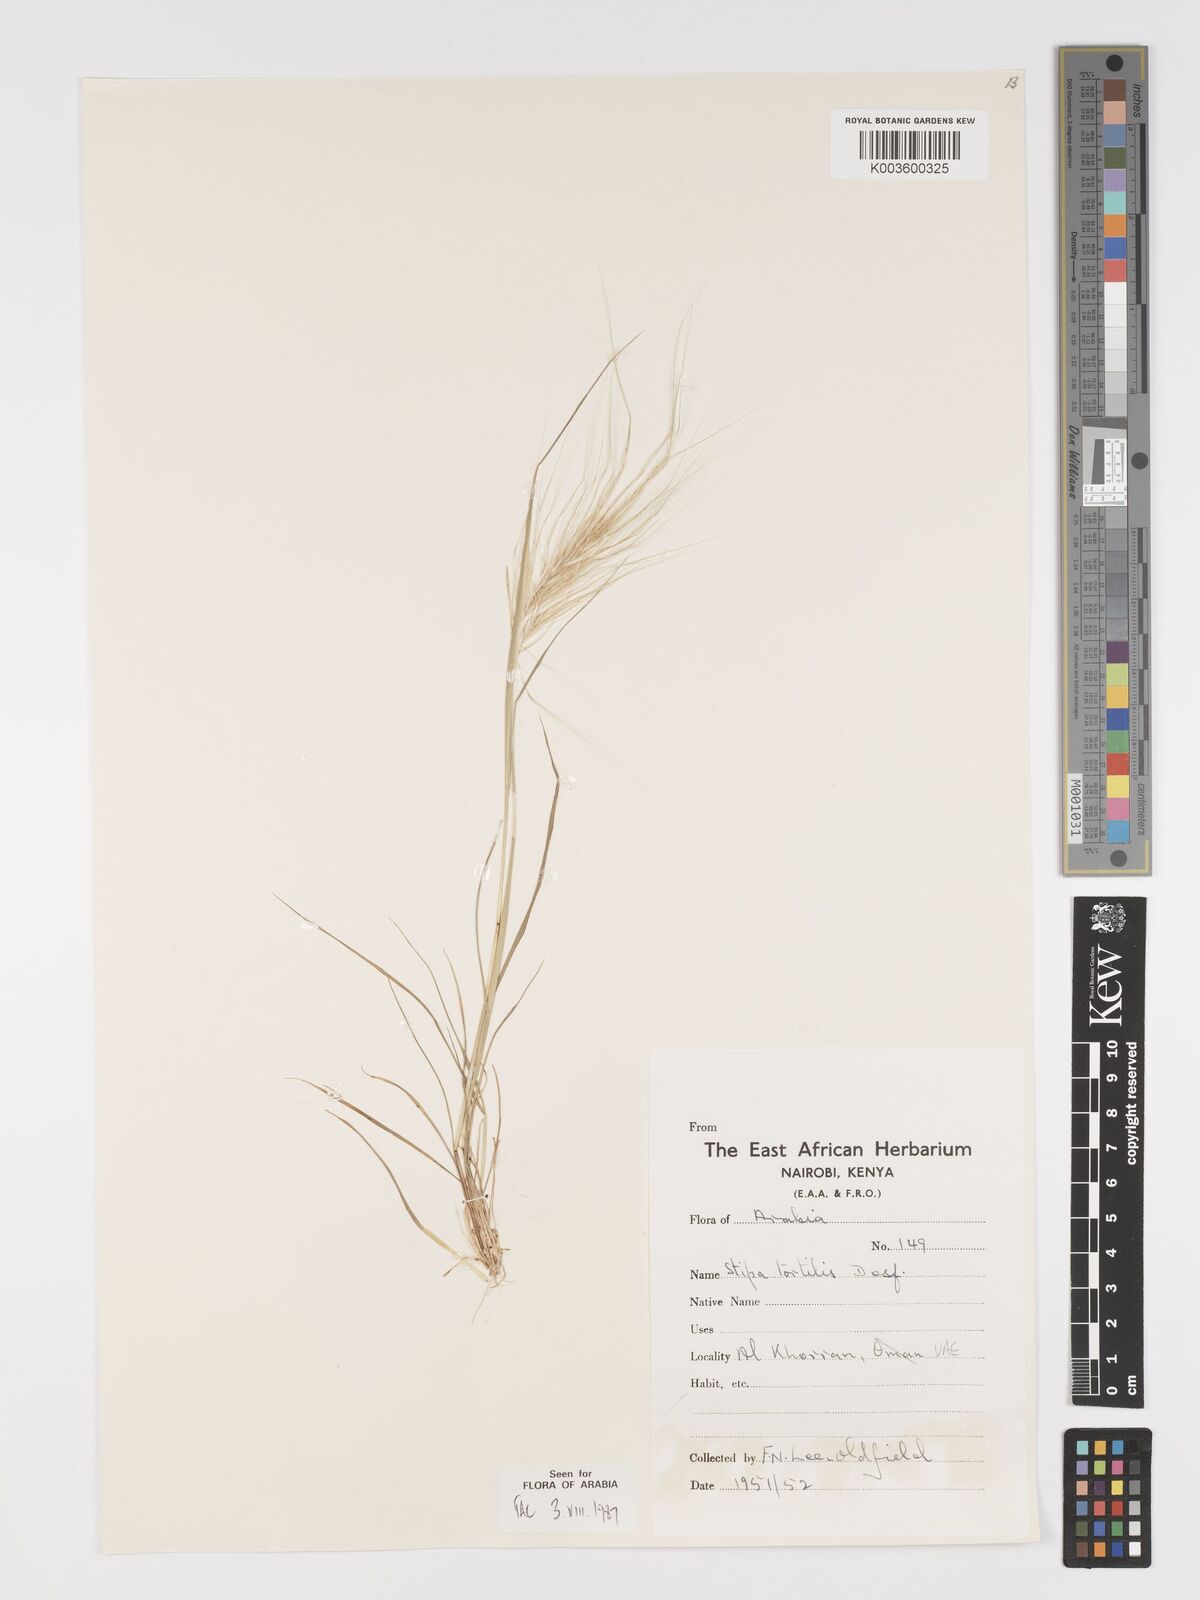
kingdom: Plantae
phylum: Tracheophyta
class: Liliopsida
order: Poales
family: Poaceae
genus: Stipellula
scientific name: Stipellula capensis
